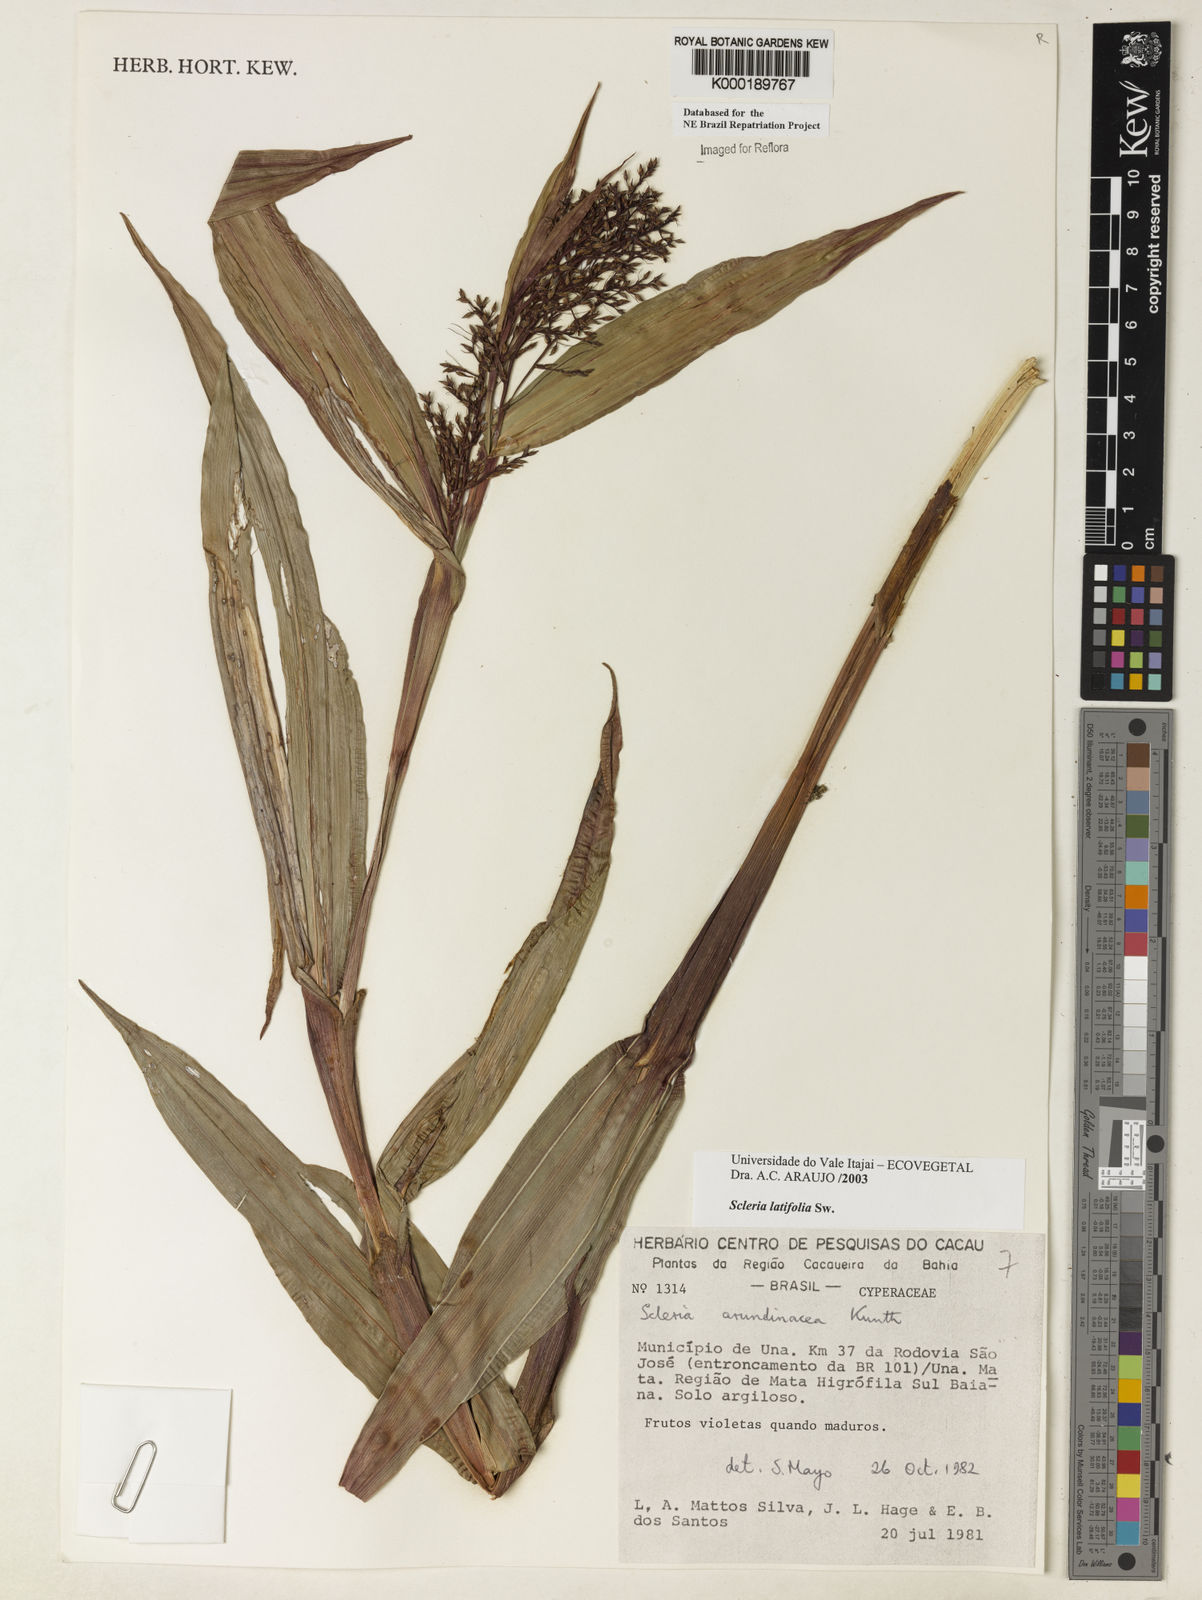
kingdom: Plantae
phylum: Tracheophyta
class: Liliopsida
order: Poales
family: Cyperaceae
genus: Scleria
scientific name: Scleria latifolia
